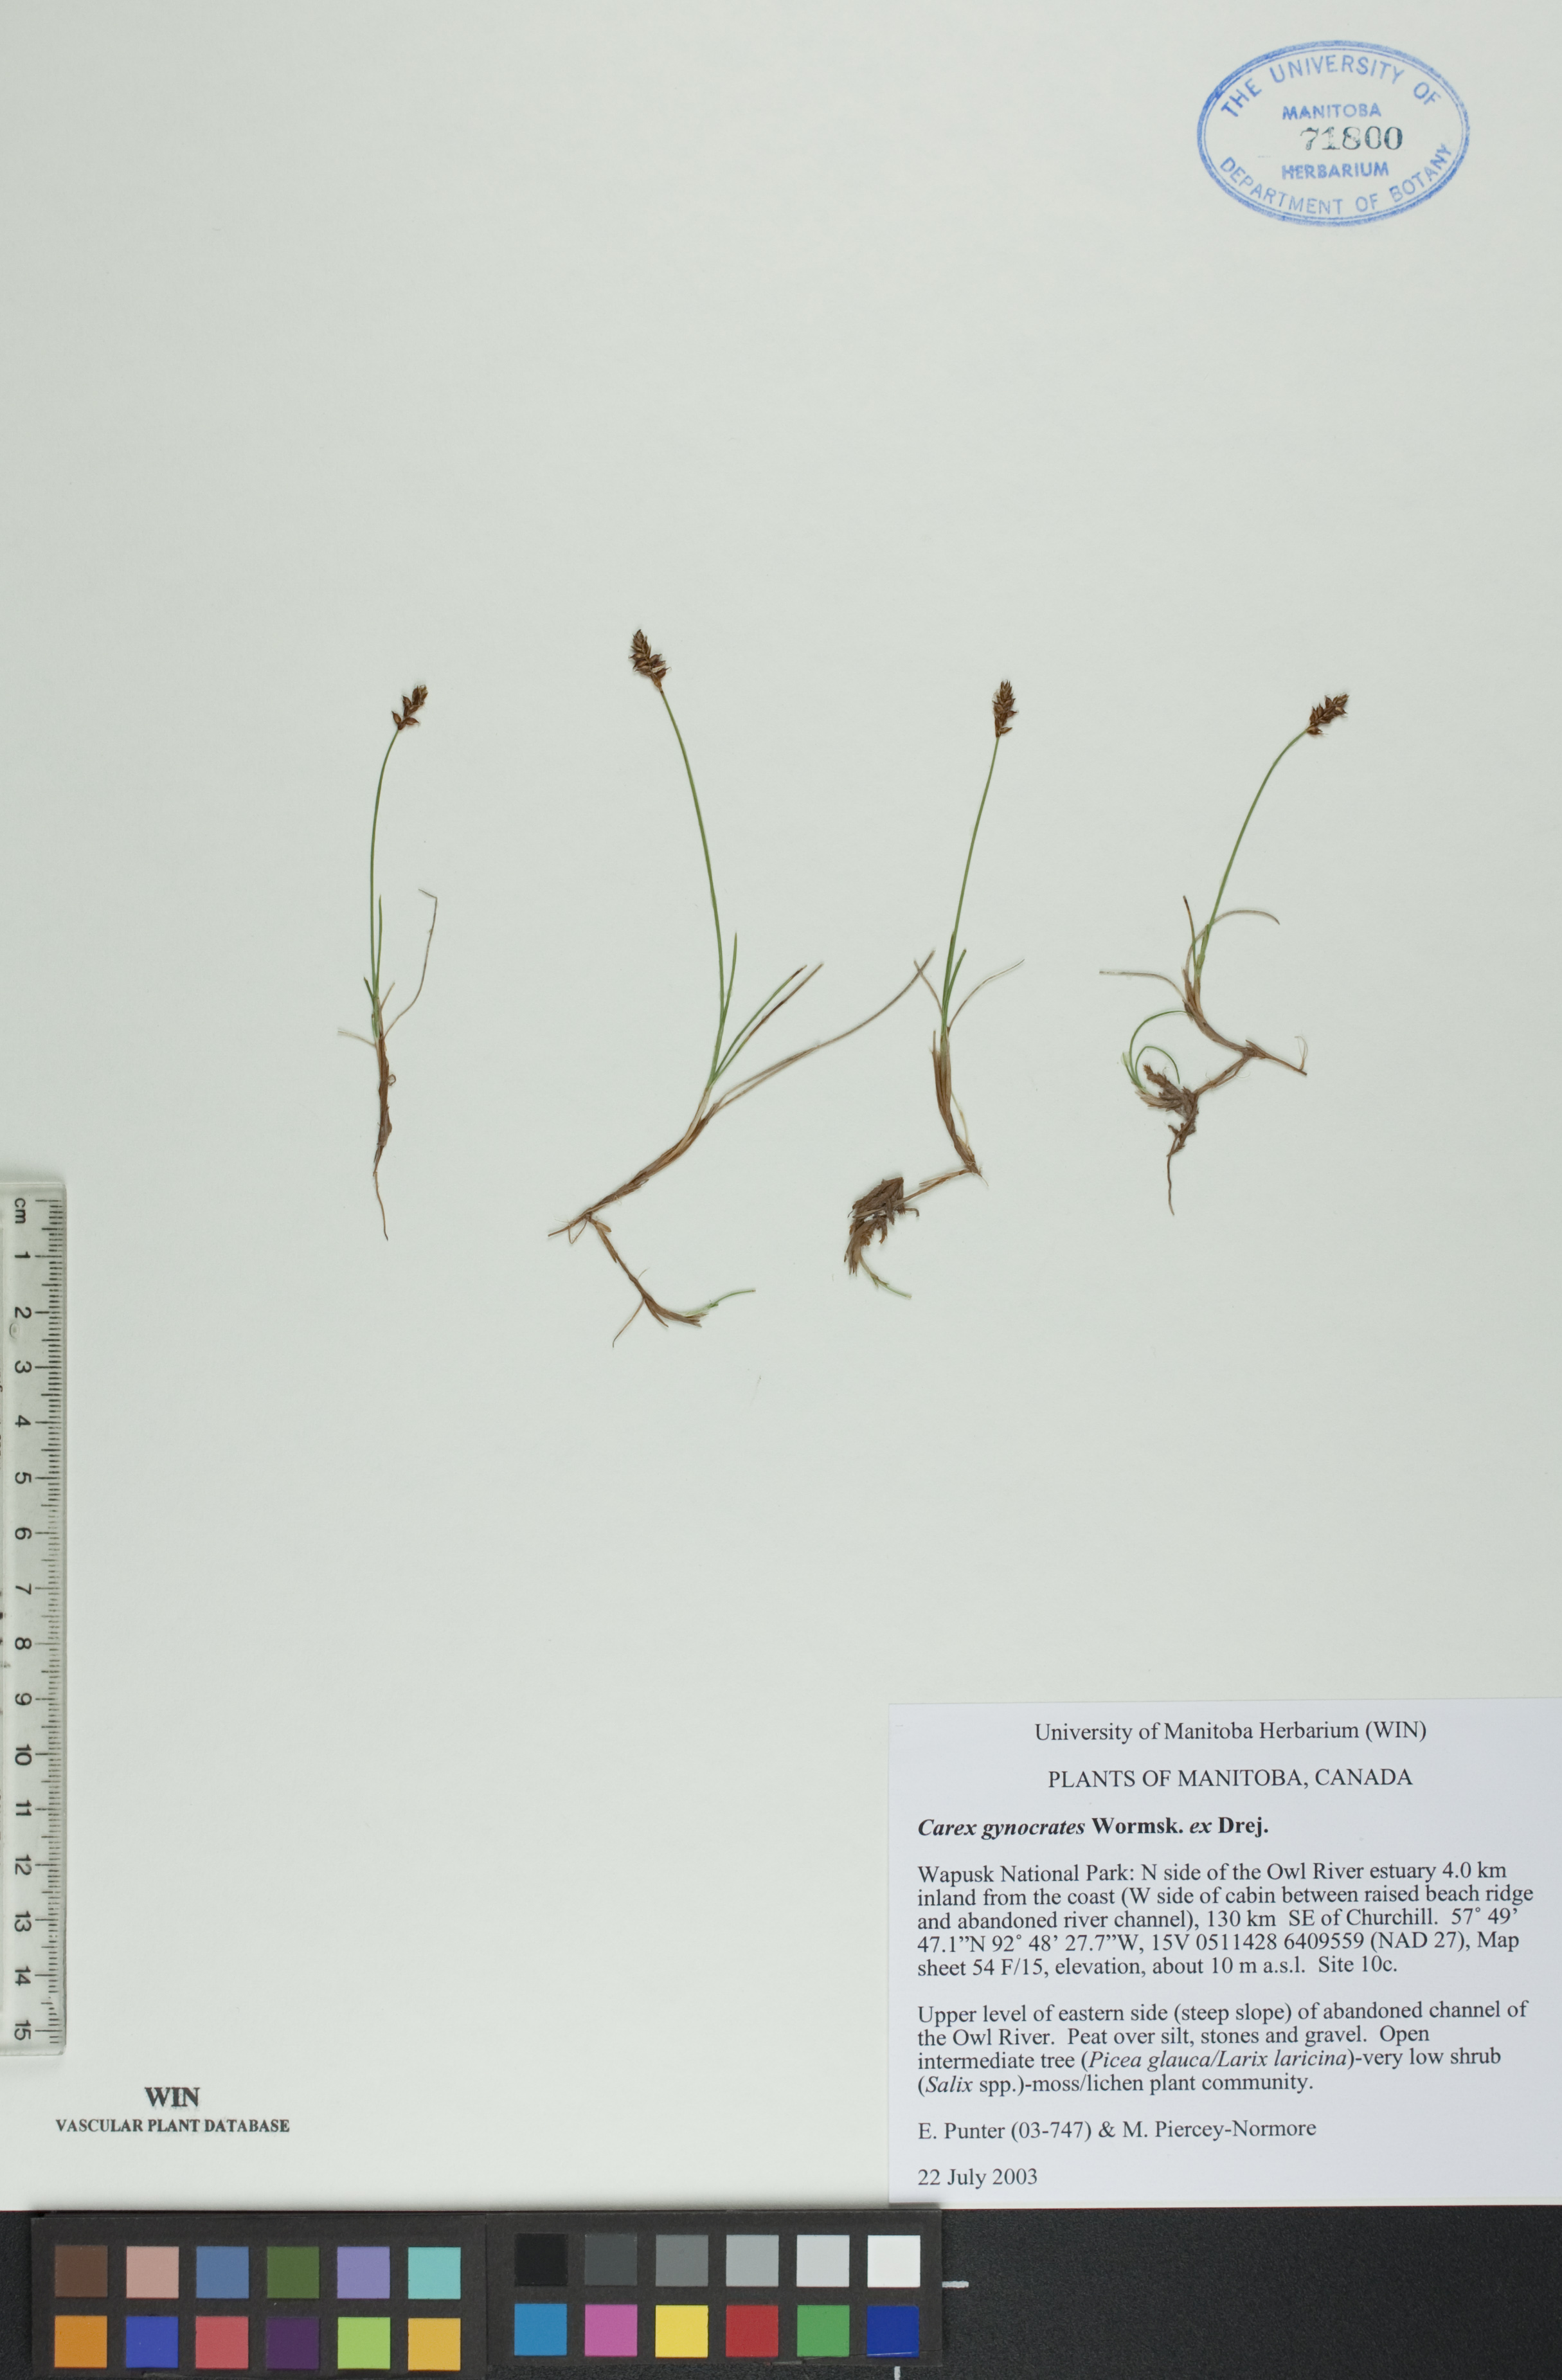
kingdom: Plantae
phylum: Tracheophyta
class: Liliopsida
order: Poales
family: Cyperaceae
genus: Carex
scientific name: Carex nardina
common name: Nard sedge
